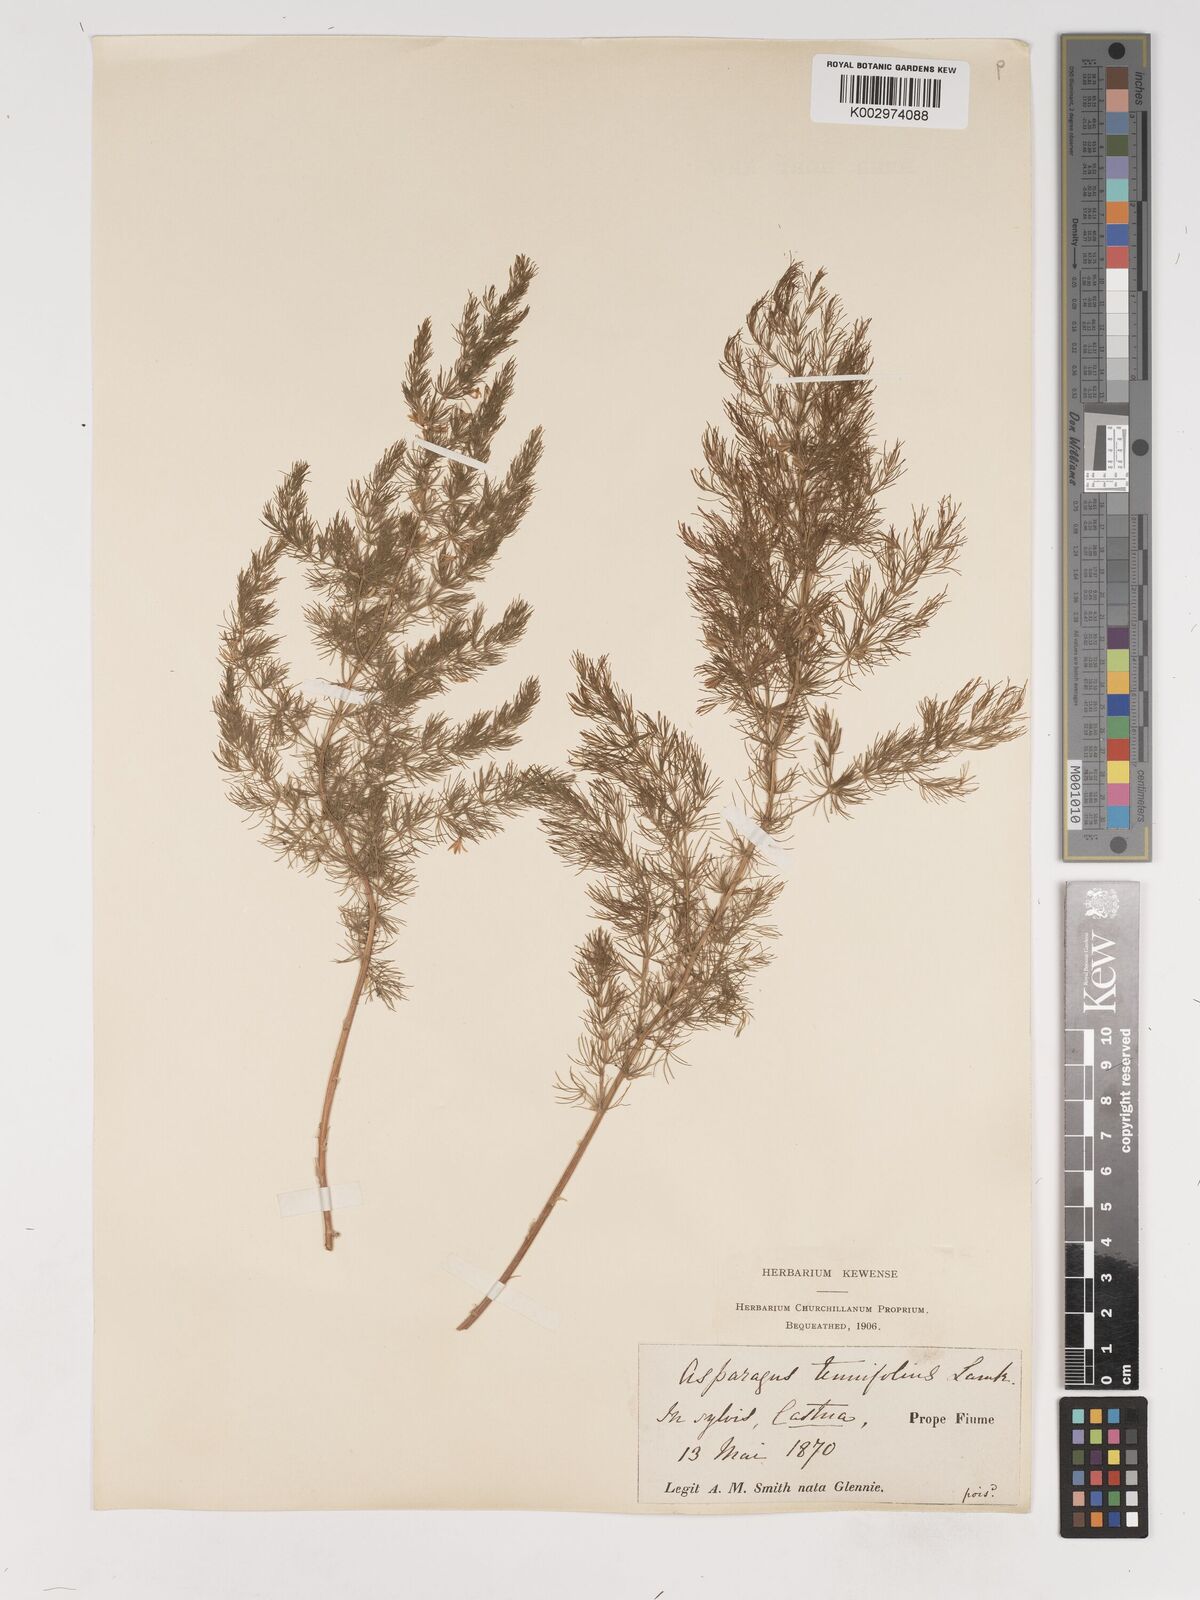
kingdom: Plantae
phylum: Tracheophyta
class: Liliopsida
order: Asparagales
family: Asparagaceae
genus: Asparagus
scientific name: Asparagus tenuifolius
